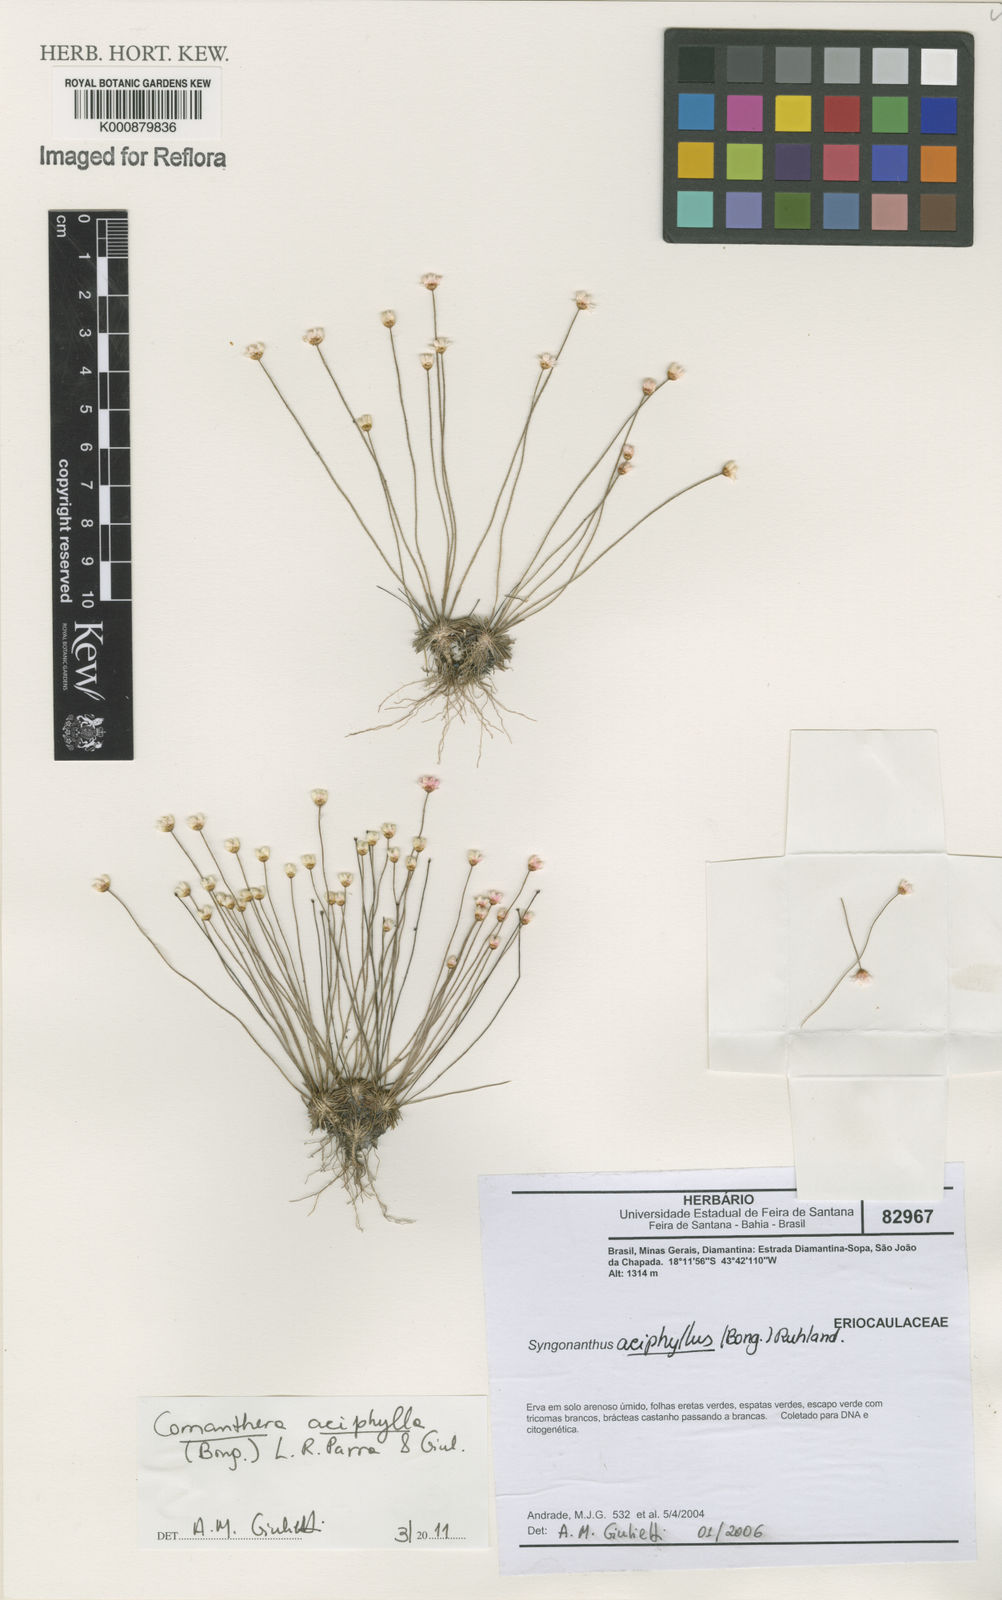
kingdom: Plantae
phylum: Tracheophyta
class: Liliopsida
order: Poales
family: Eriocaulaceae
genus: Comanthera
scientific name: Comanthera aciphylla
